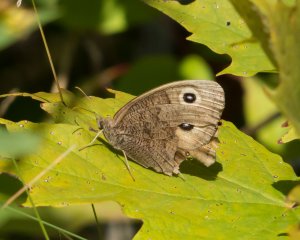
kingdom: Animalia
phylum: Arthropoda
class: Insecta
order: Lepidoptera
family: Nymphalidae
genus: Cercyonis
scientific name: Cercyonis pegala
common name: Common Wood-Nymph
